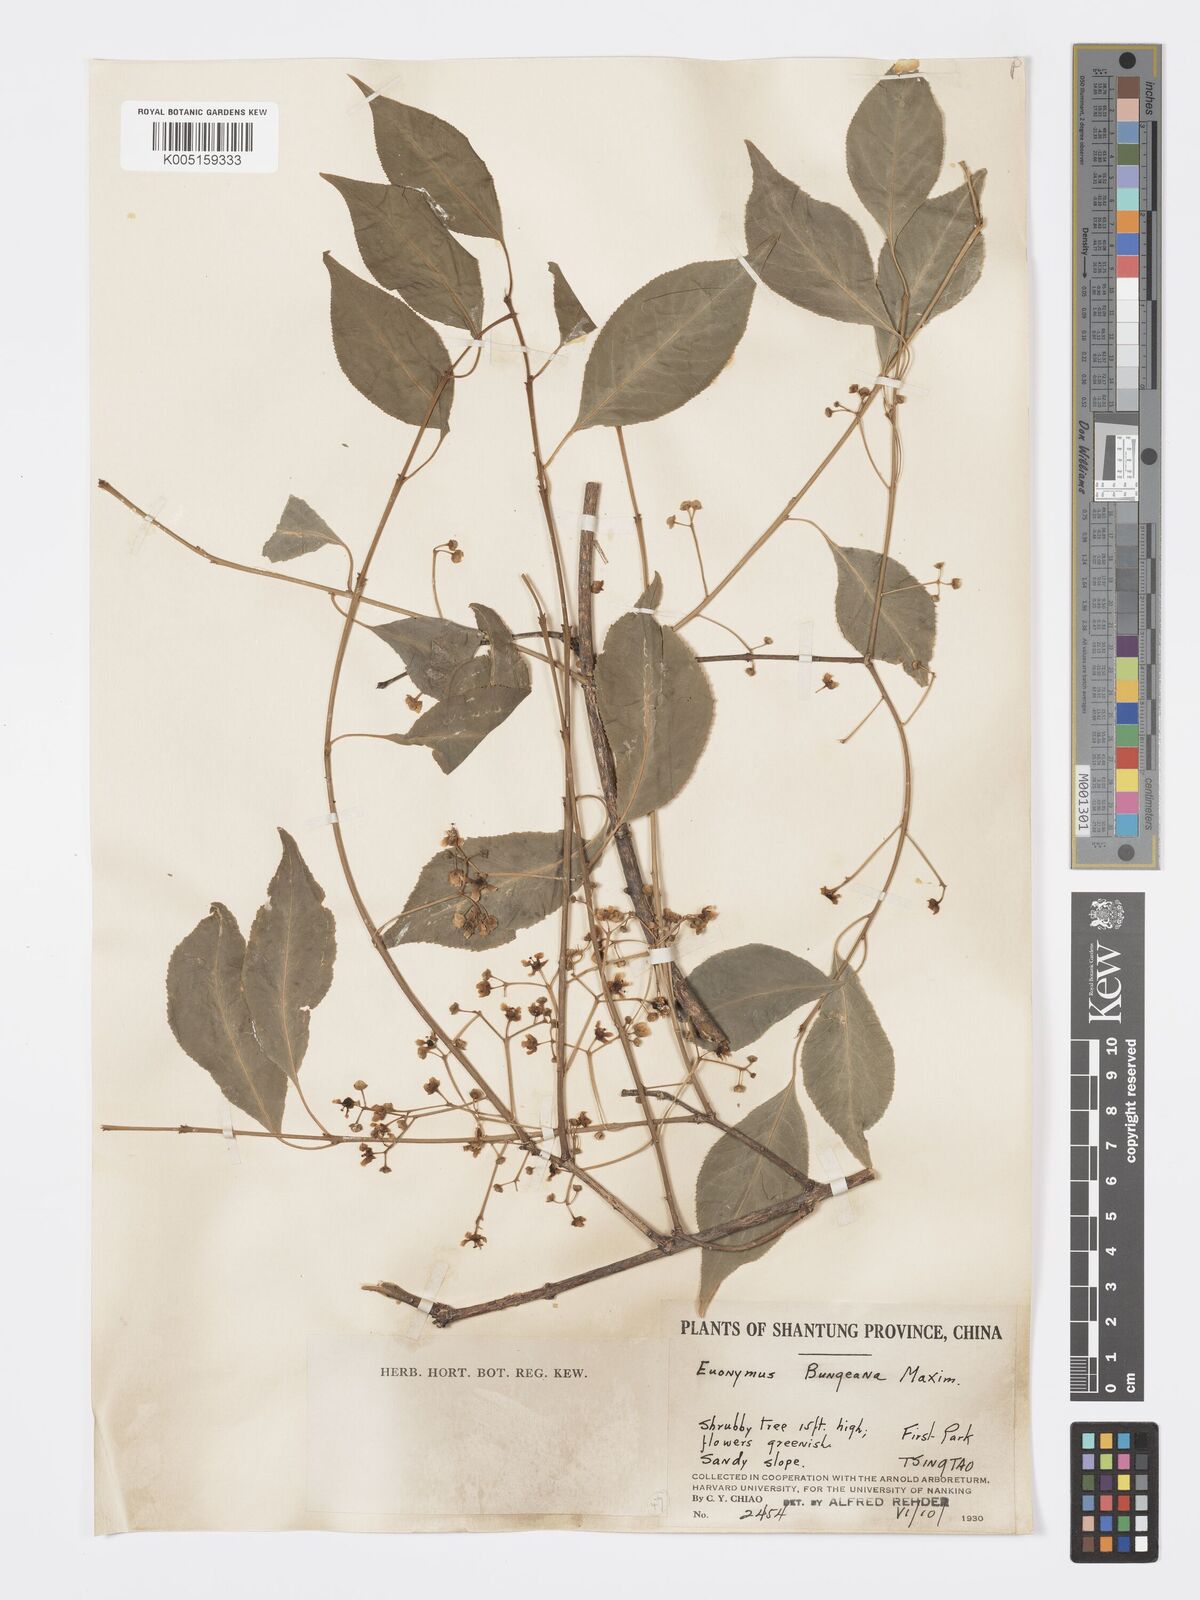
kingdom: Plantae
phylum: Tracheophyta
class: Magnoliopsida
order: Celastrales
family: Celastraceae
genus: Euonymus
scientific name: Euonymus maackii
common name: Hamilton's spindletree
